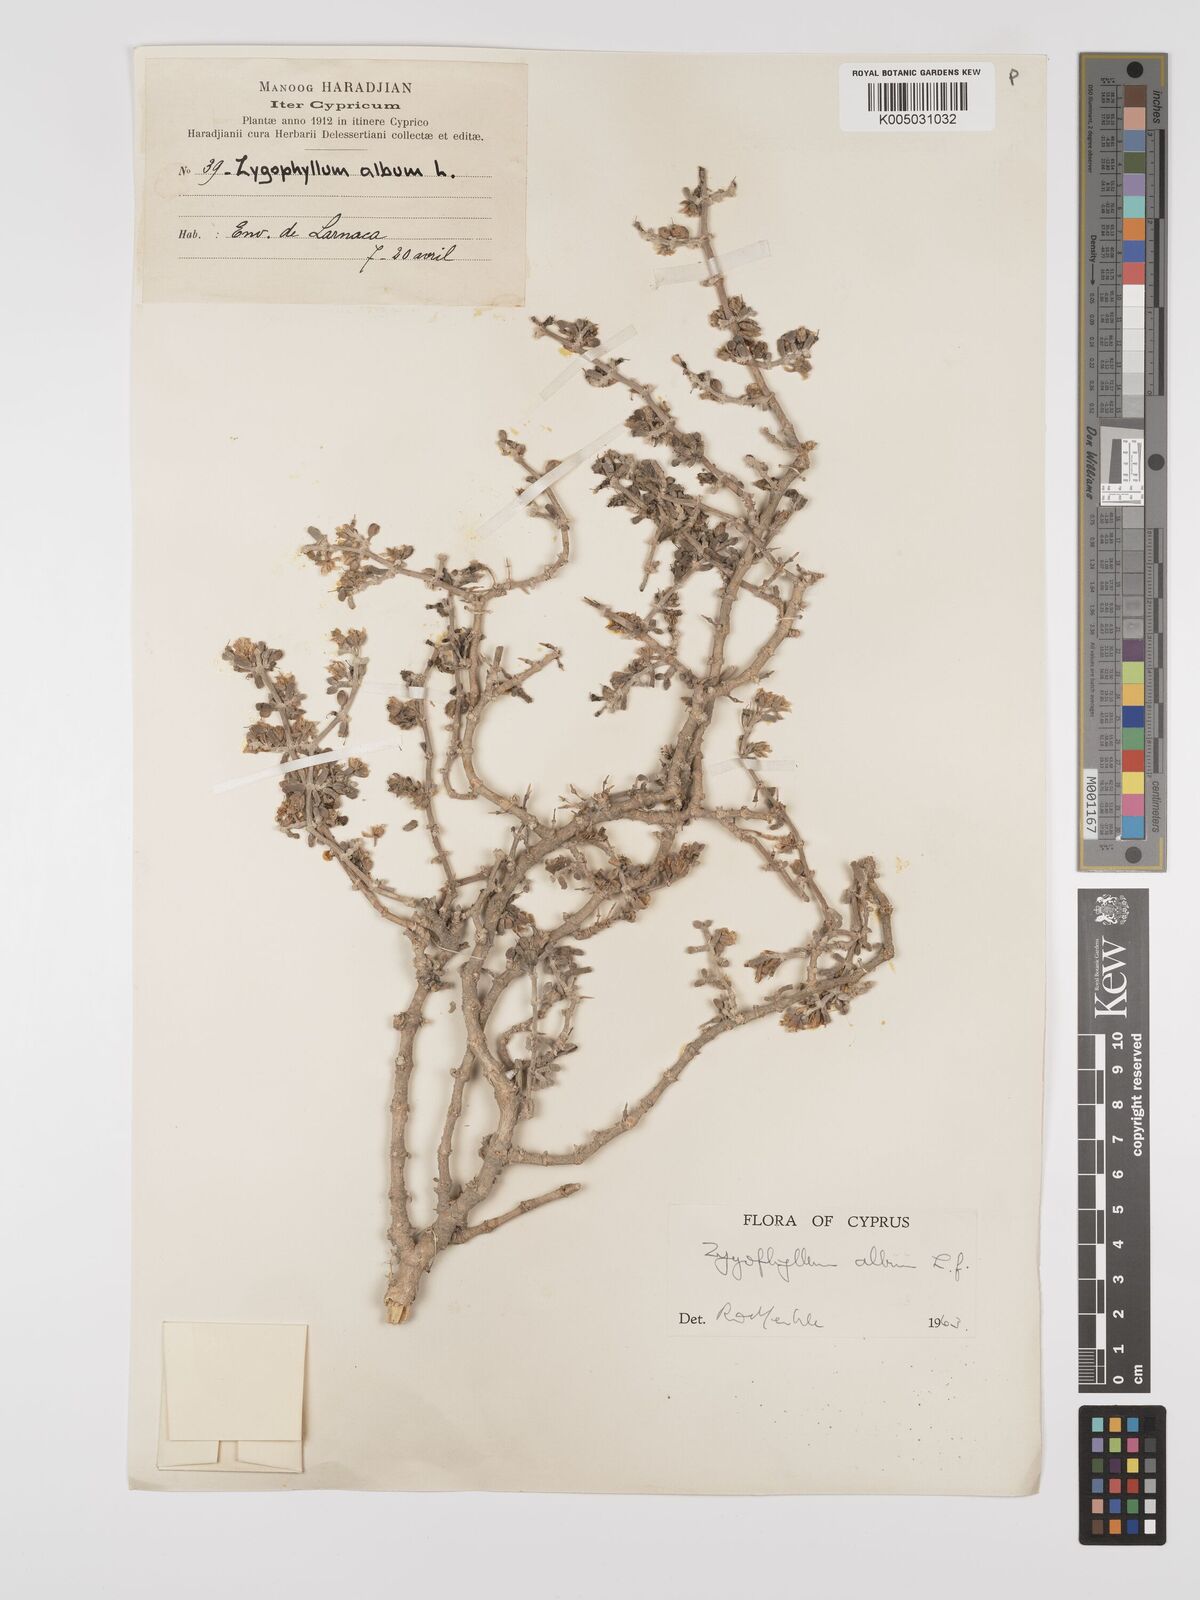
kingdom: Plantae
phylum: Tracheophyta
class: Magnoliopsida
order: Zygophyllales
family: Zygophyllaceae
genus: Zygophyllum
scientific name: Zygophyllum
